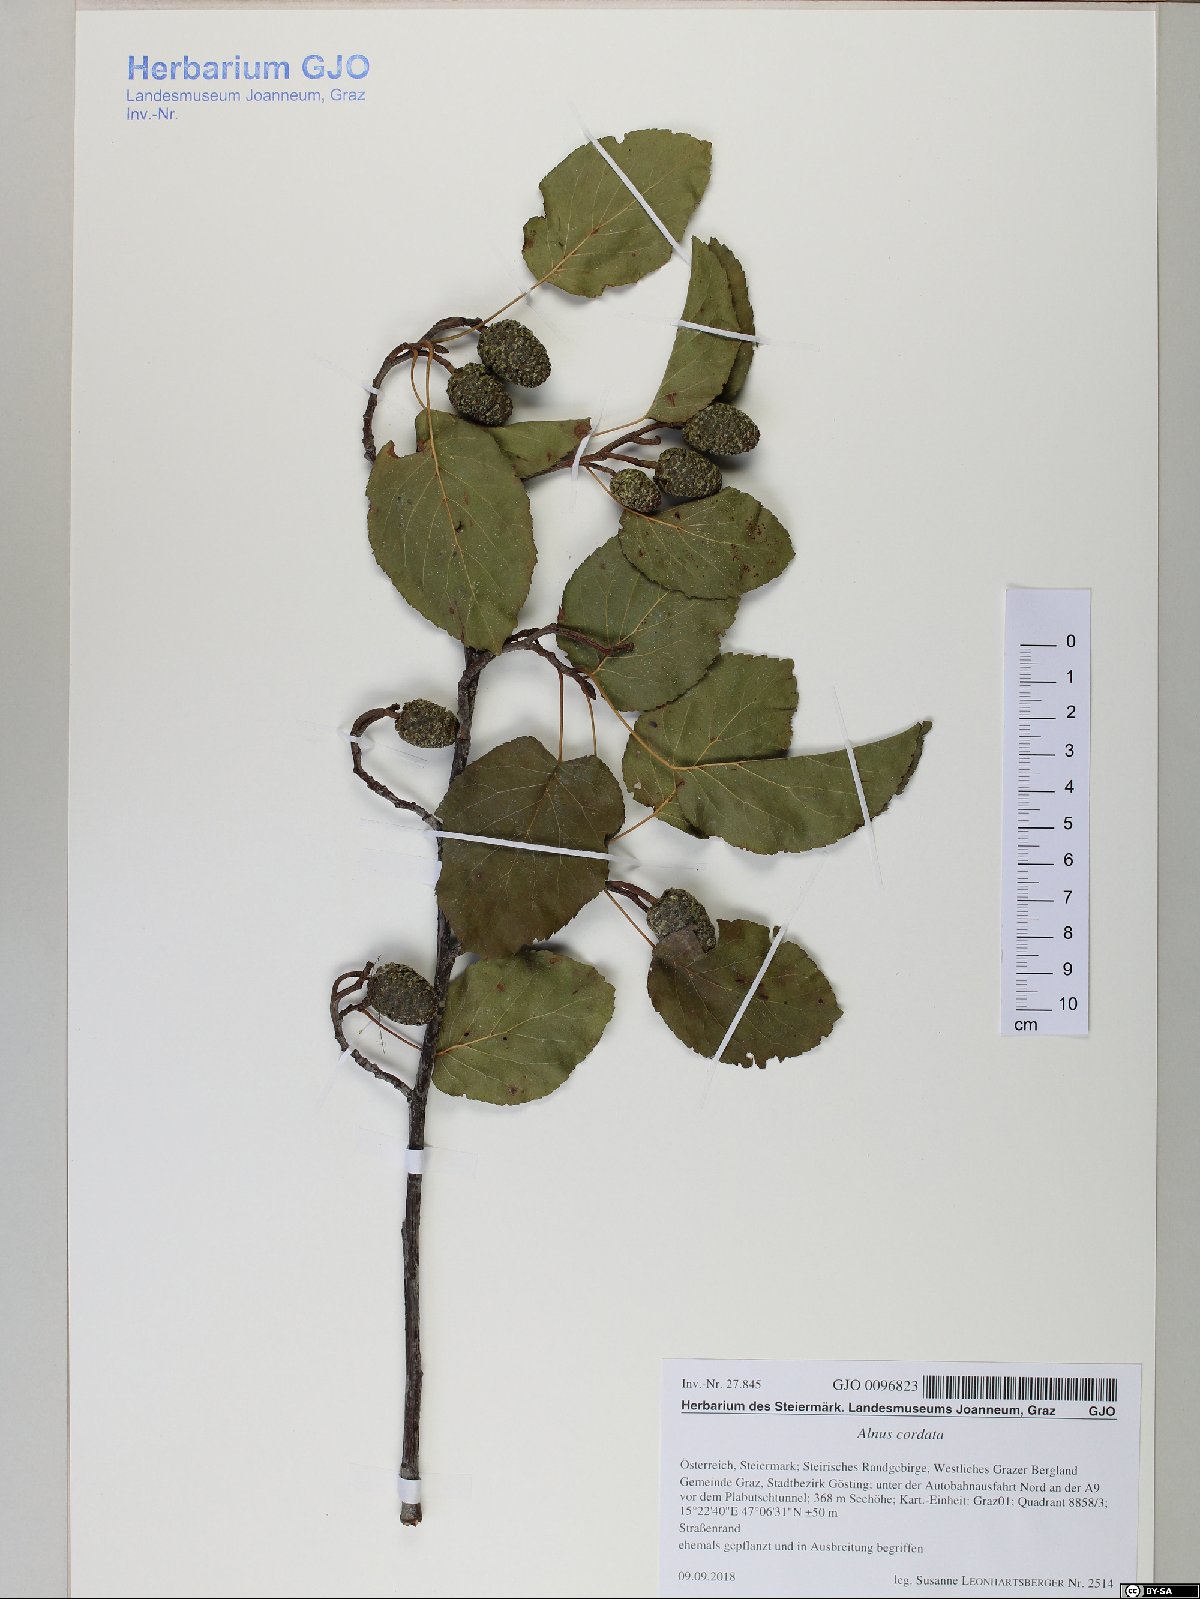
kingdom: Plantae
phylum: Tracheophyta
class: Magnoliopsida
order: Fagales
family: Betulaceae
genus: Alnus
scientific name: Alnus cordata
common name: Italian alder
